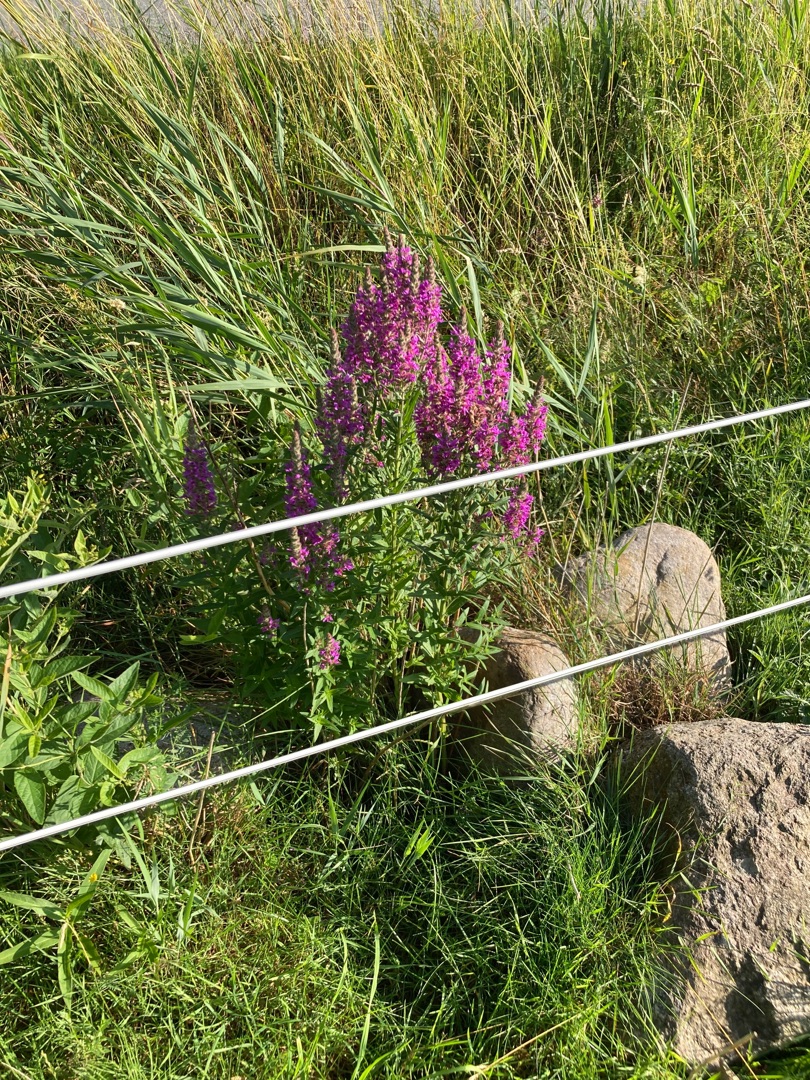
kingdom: Plantae
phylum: Tracheophyta
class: Magnoliopsida
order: Myrtales
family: Lythraceae
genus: Lythrum
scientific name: Lythrum salicaria
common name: Kattehale
